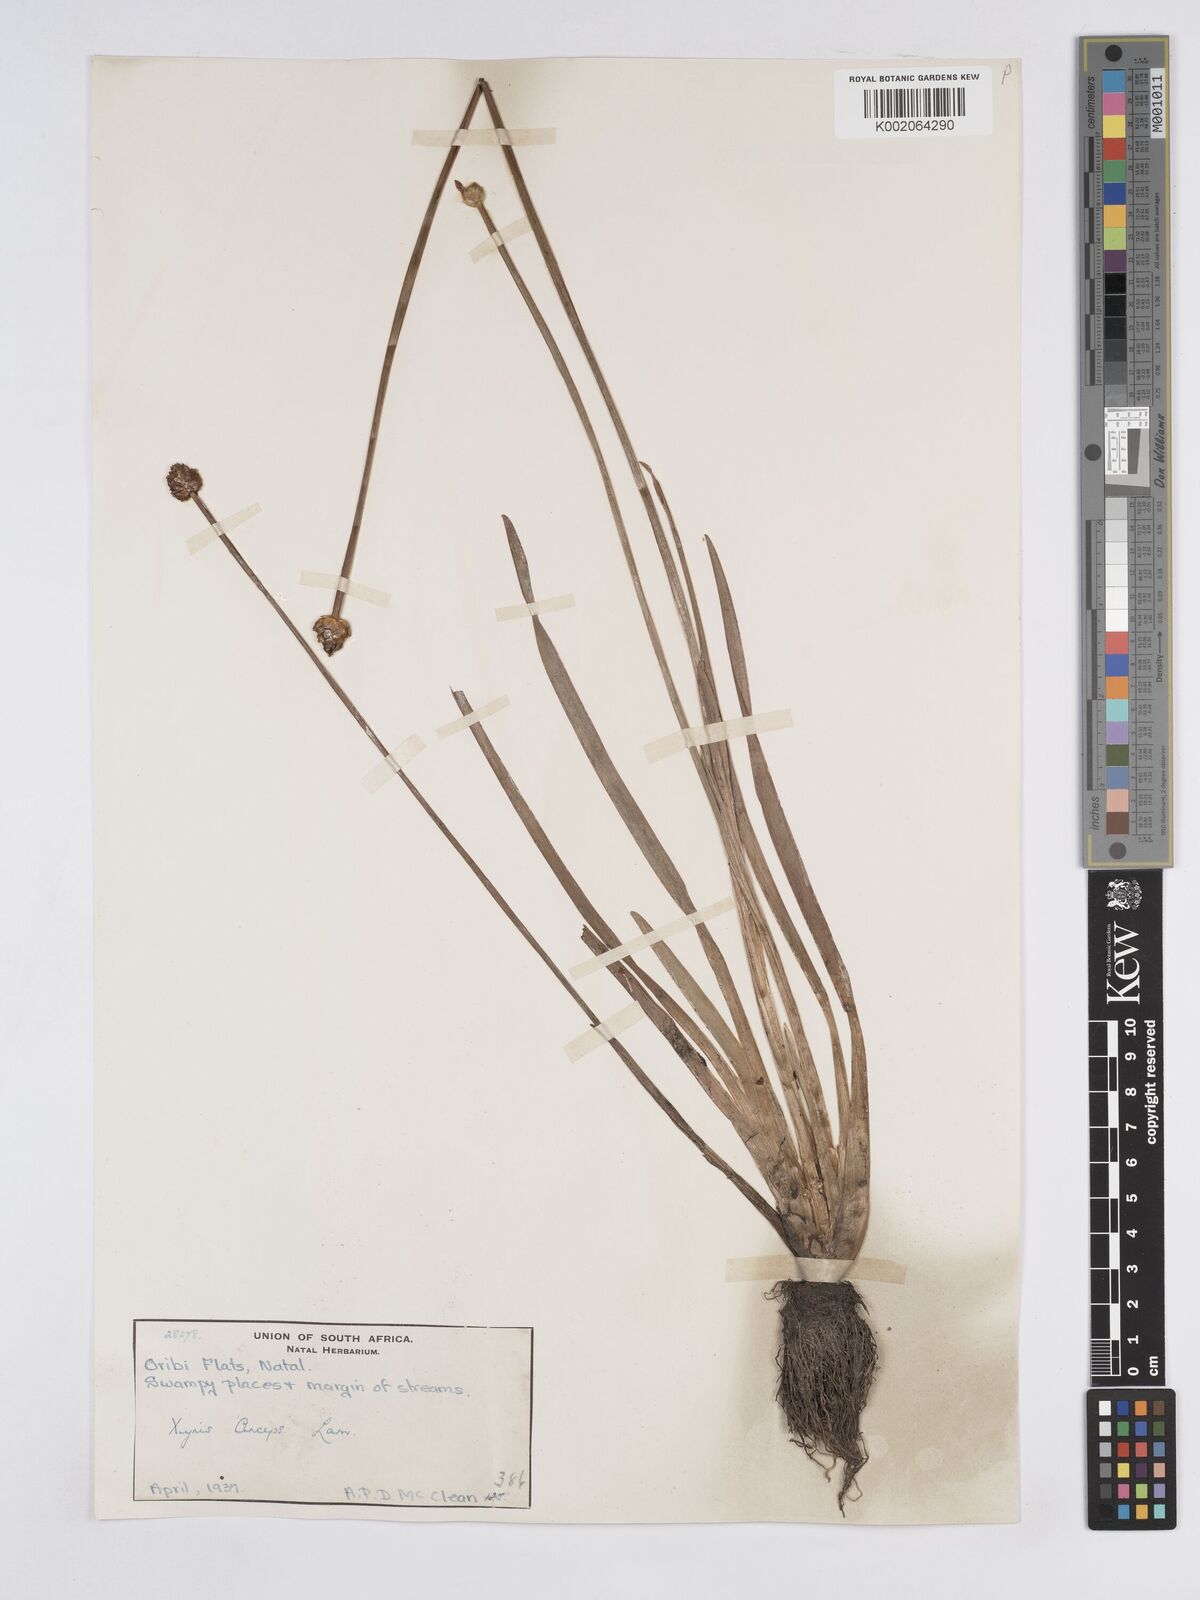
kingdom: Plantae
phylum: Tracheophyta
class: Liliopsida
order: Poales
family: Xyridaceae
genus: Xyris
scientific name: Xyris anceps
